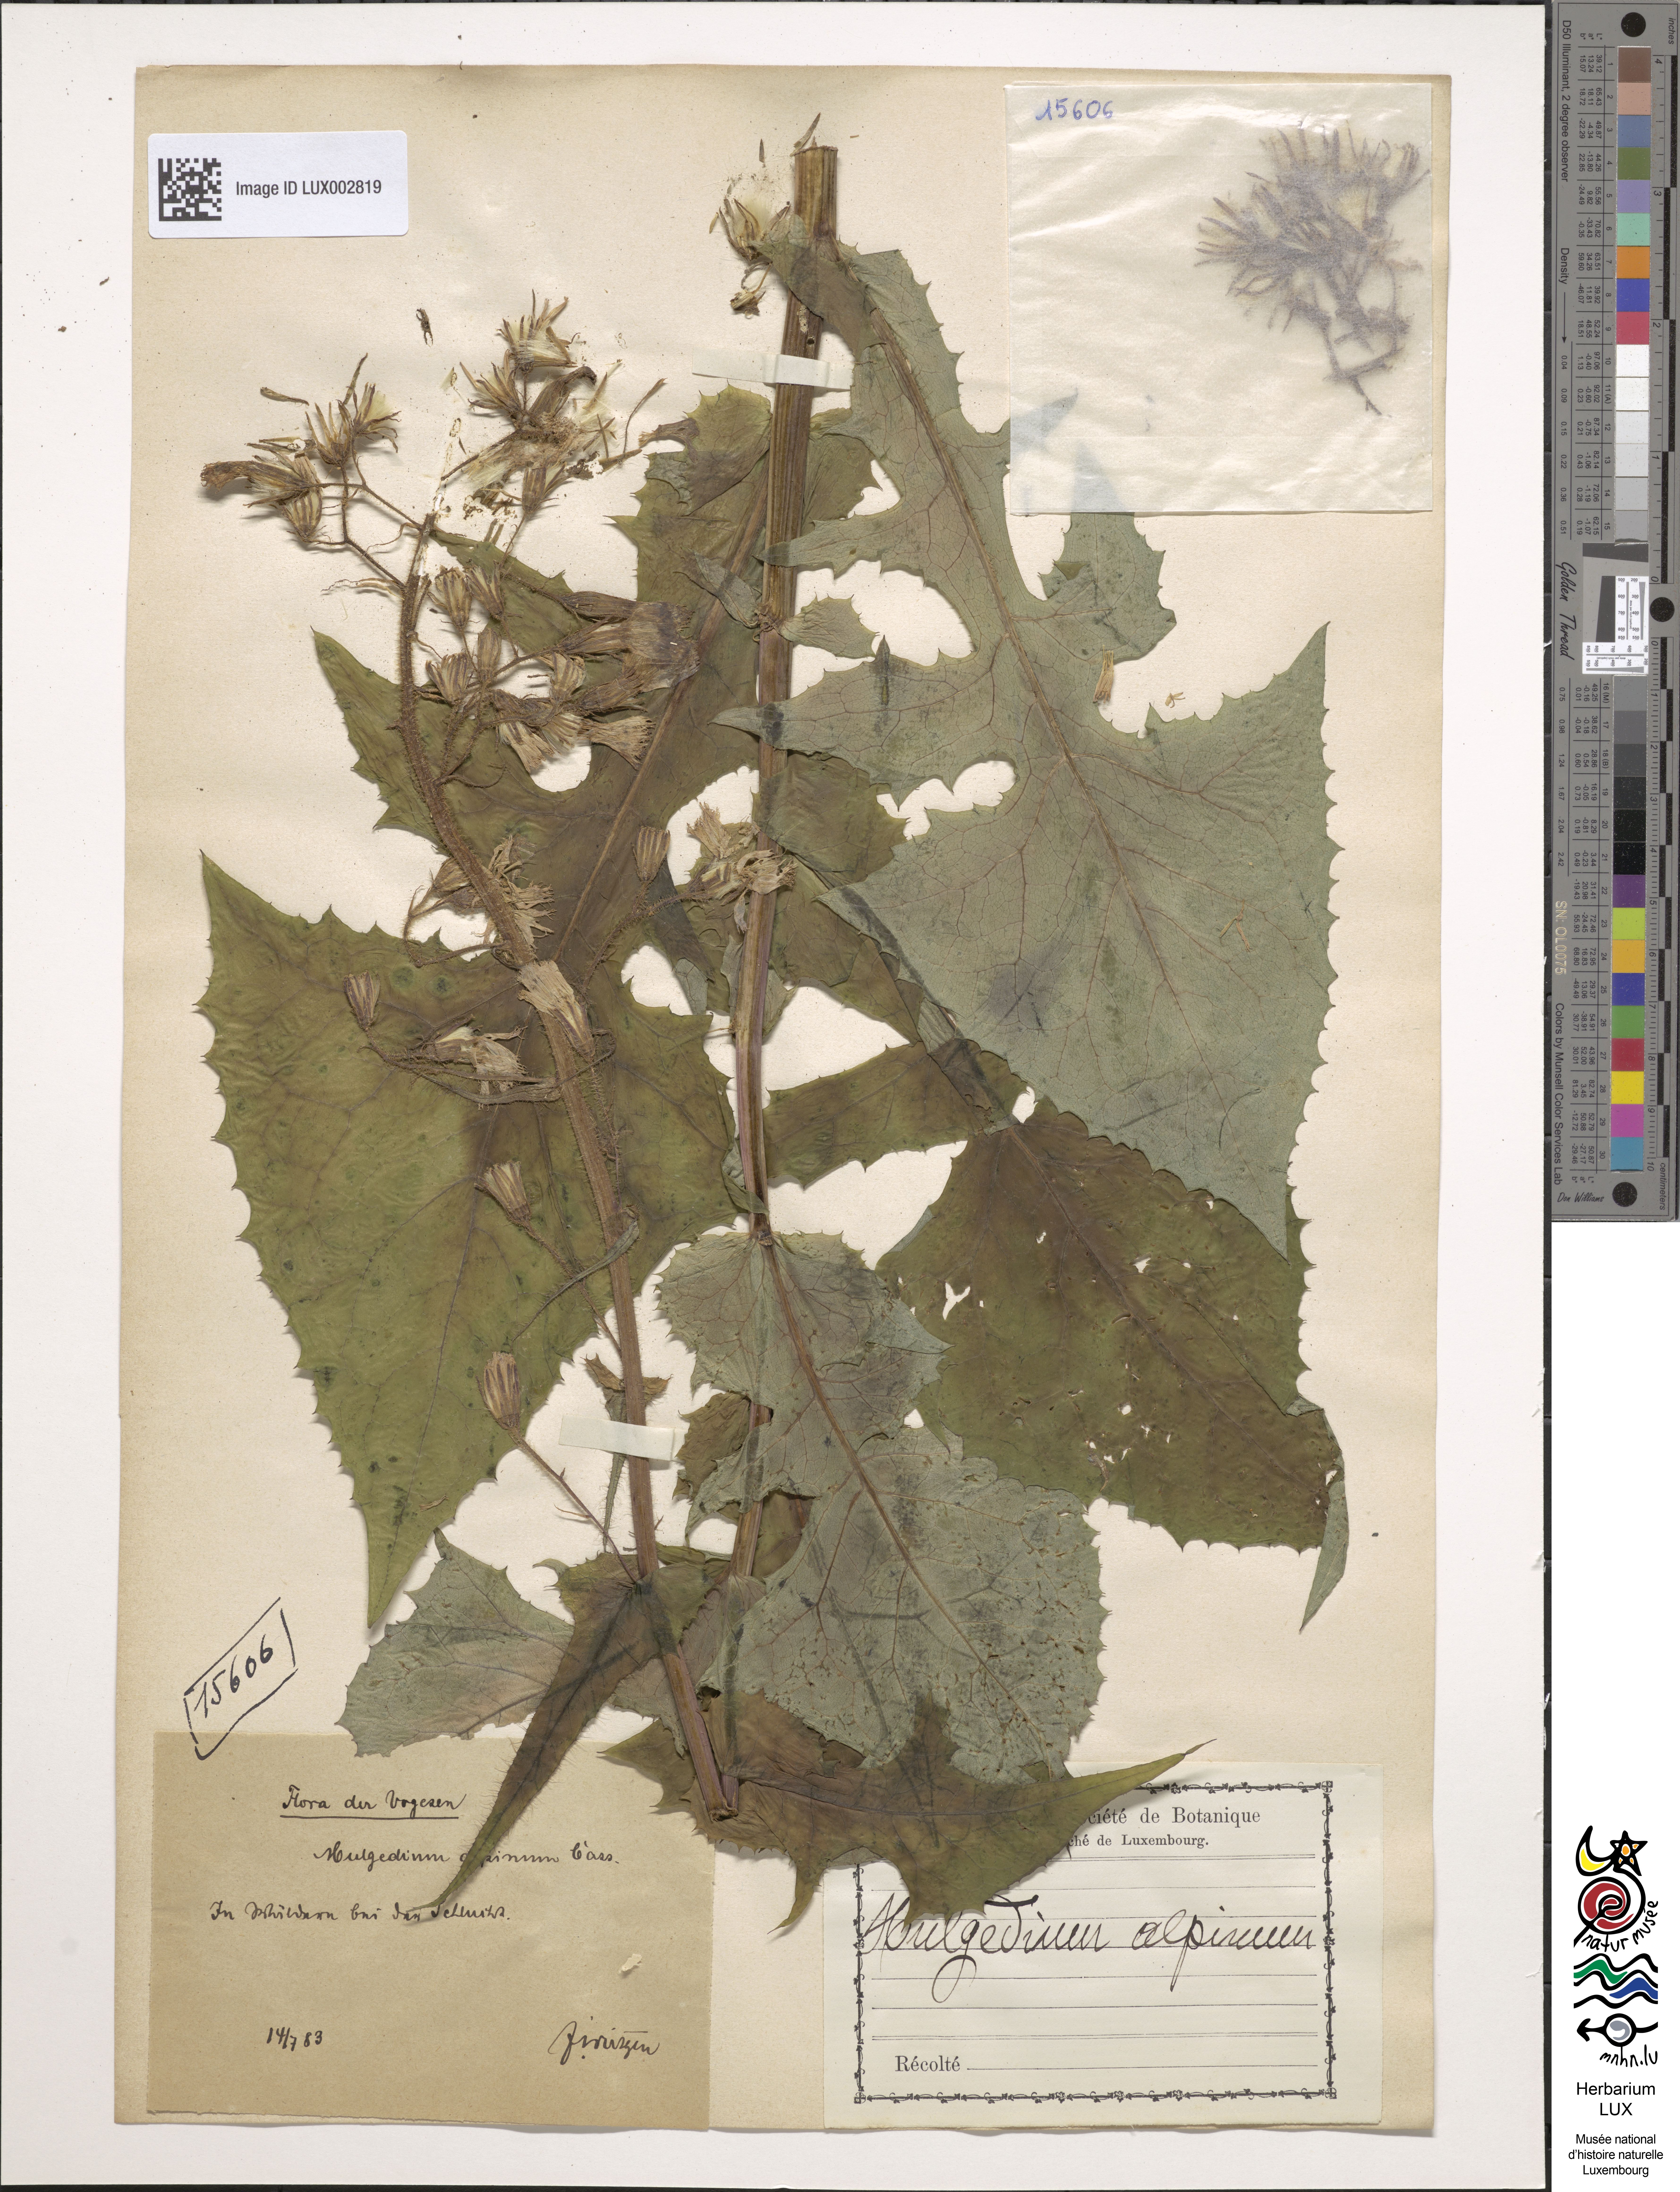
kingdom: Plantae
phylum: Tracheophyta
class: Magnoliopsida
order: Asterales
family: Asteraceae
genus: Cicerbita
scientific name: Cicerbita alpina
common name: Alpine blue-sow-thistle
